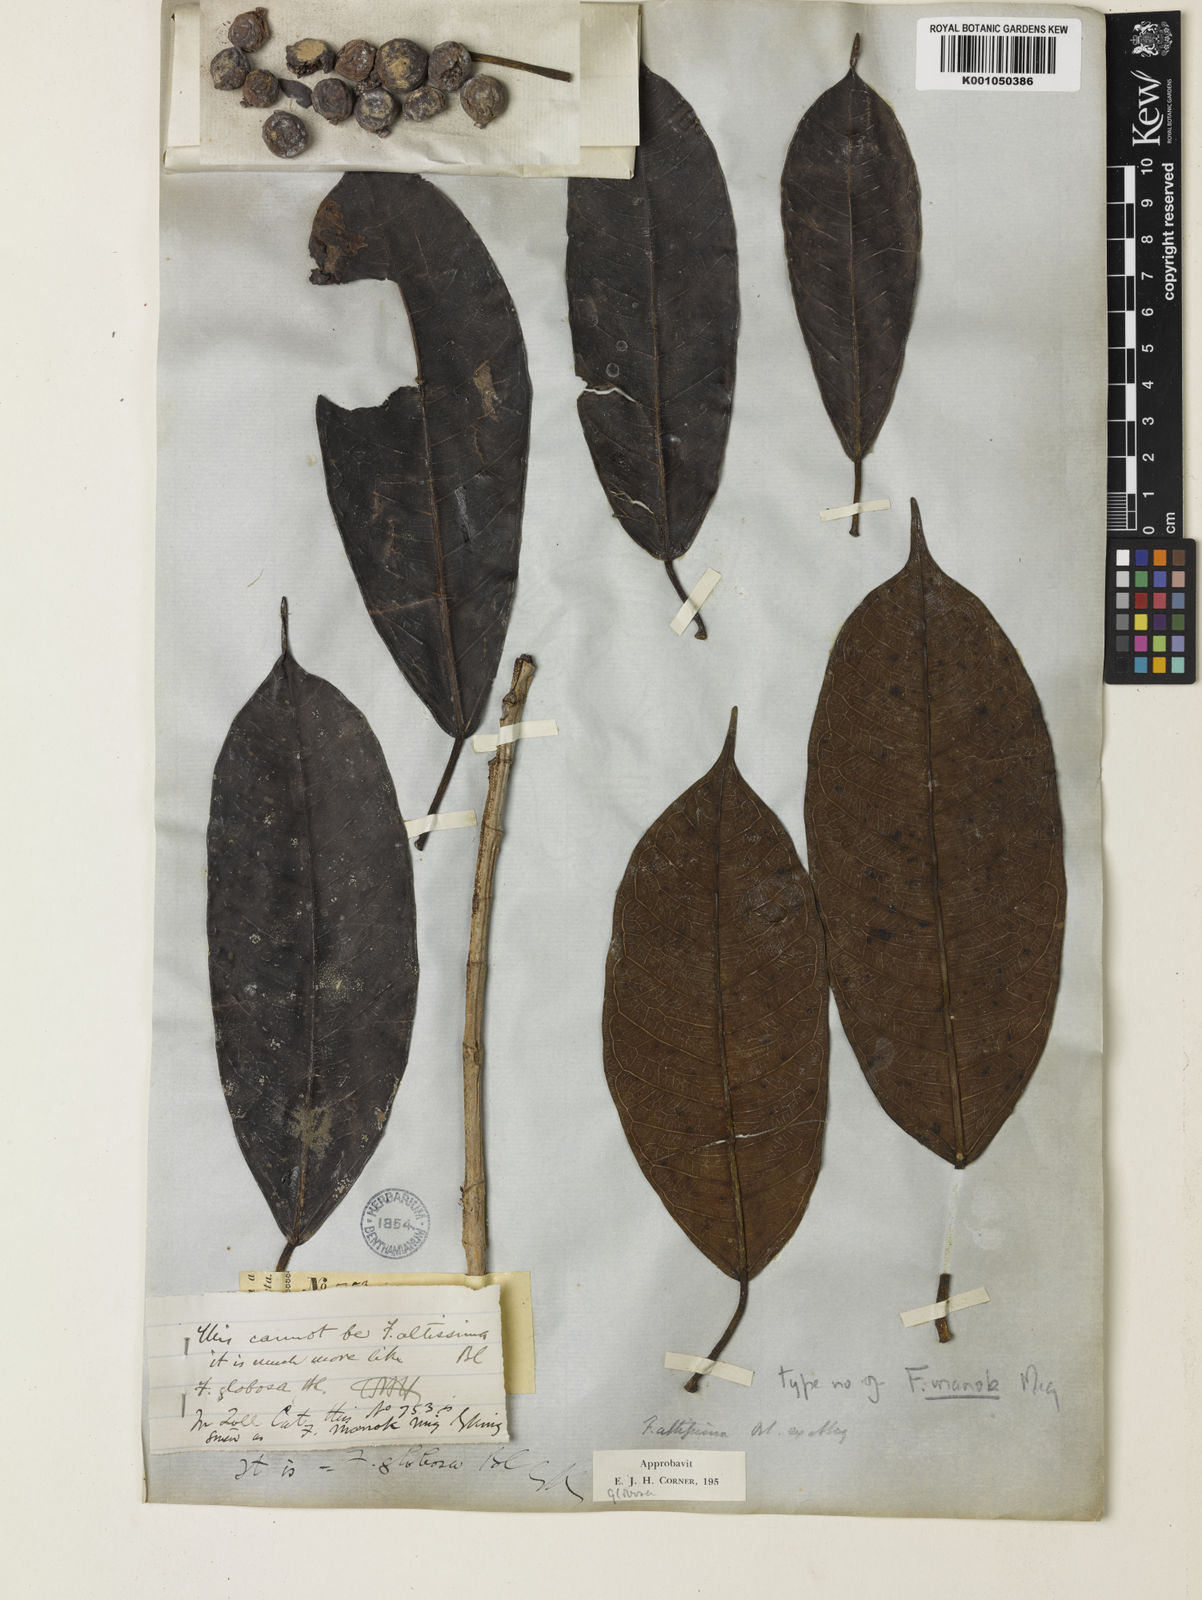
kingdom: Plantae
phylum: Tracheophyta
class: Magnoliopsida
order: Rosales
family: Moraceae
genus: Ficus
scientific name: Ficus globosa
